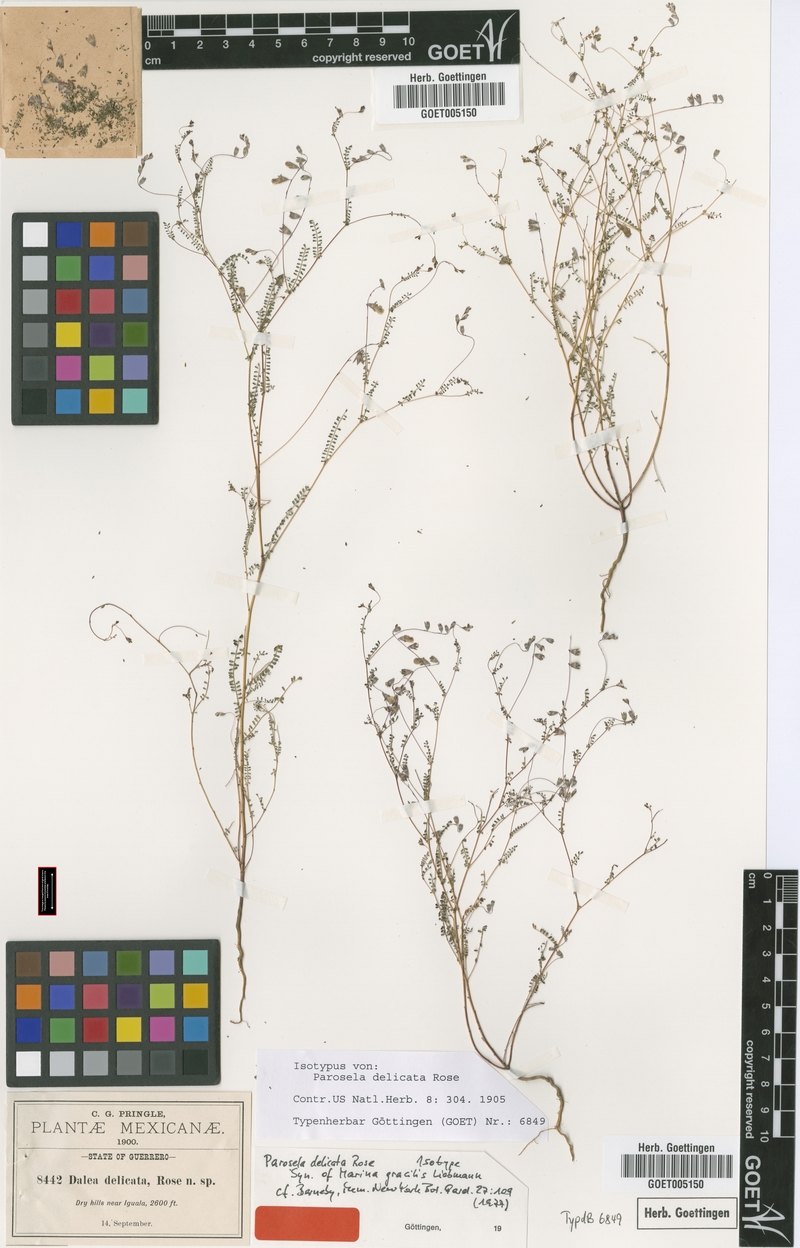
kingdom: Plantae
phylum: Tracheophyta
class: Magnoliopsida
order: Fabales
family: Fabaceae
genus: Marina
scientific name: Marina gracilis
